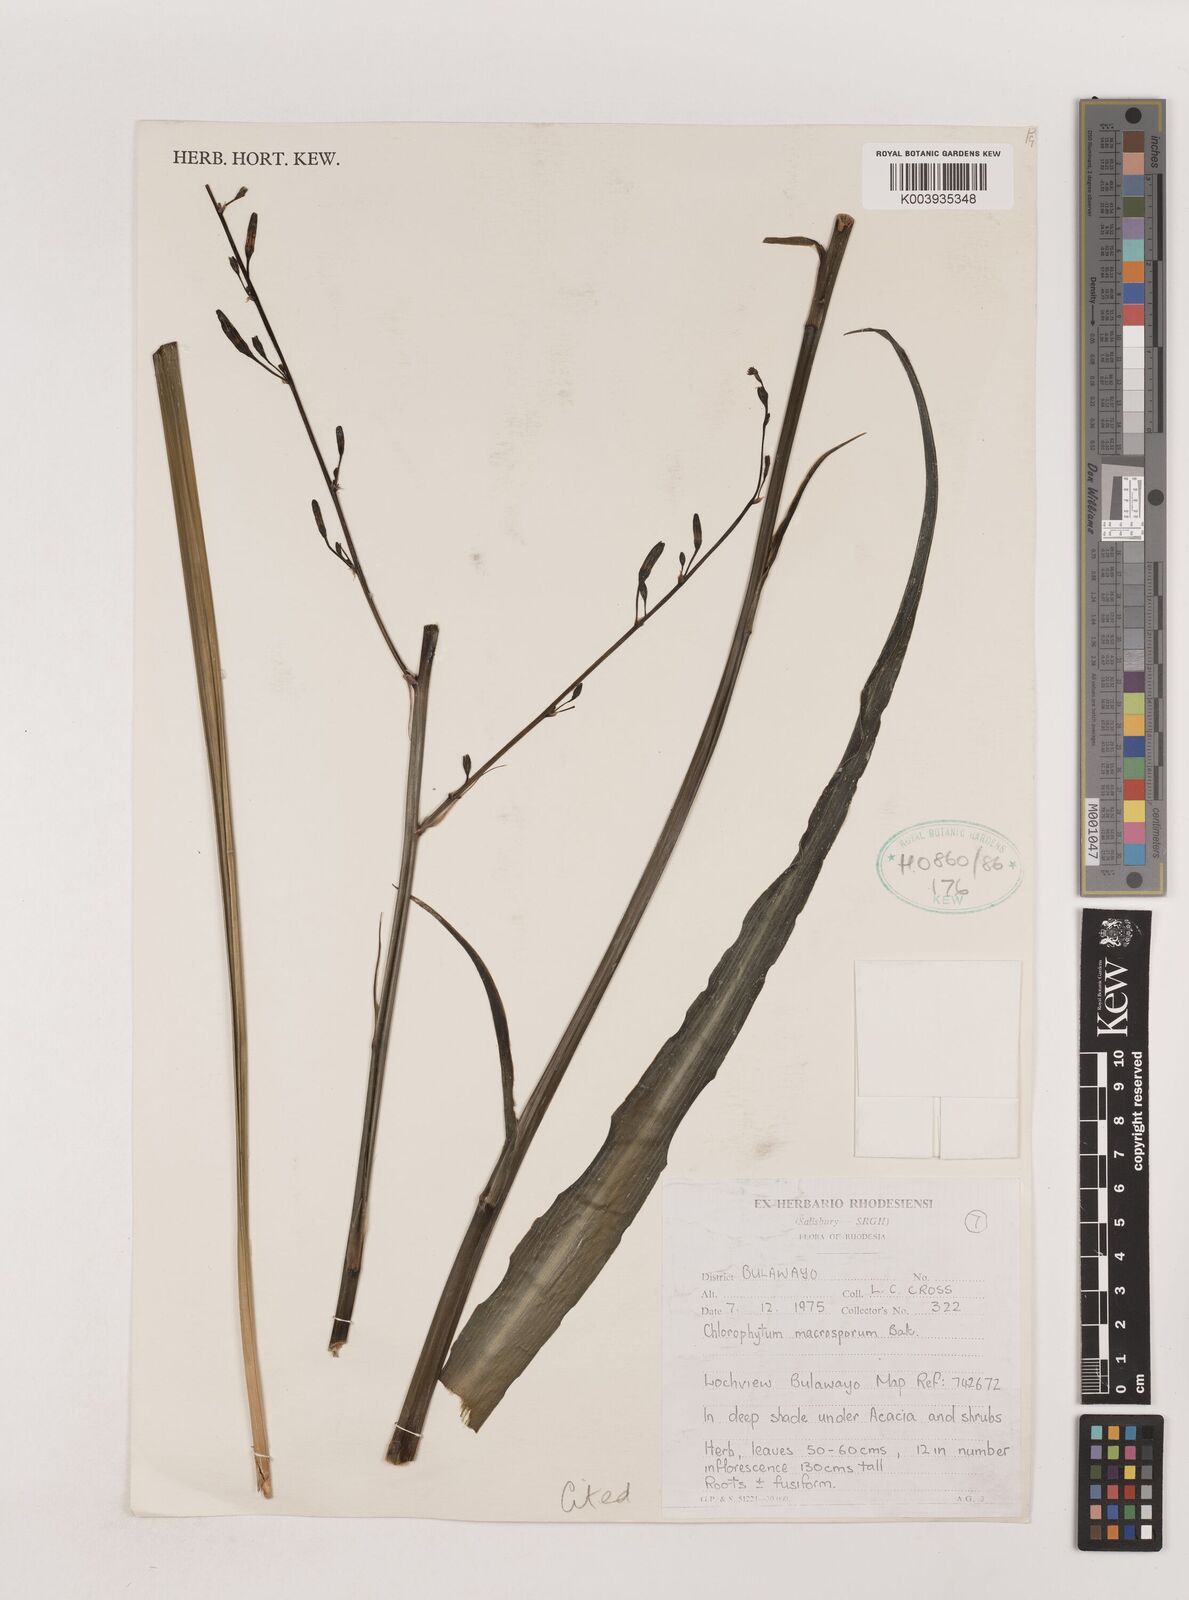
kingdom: Plantae
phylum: Tracheophyta
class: Liliopsida
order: Asparagales
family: Asparagaceae
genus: Chlorophytum
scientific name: Chlorophytum macrosporum
